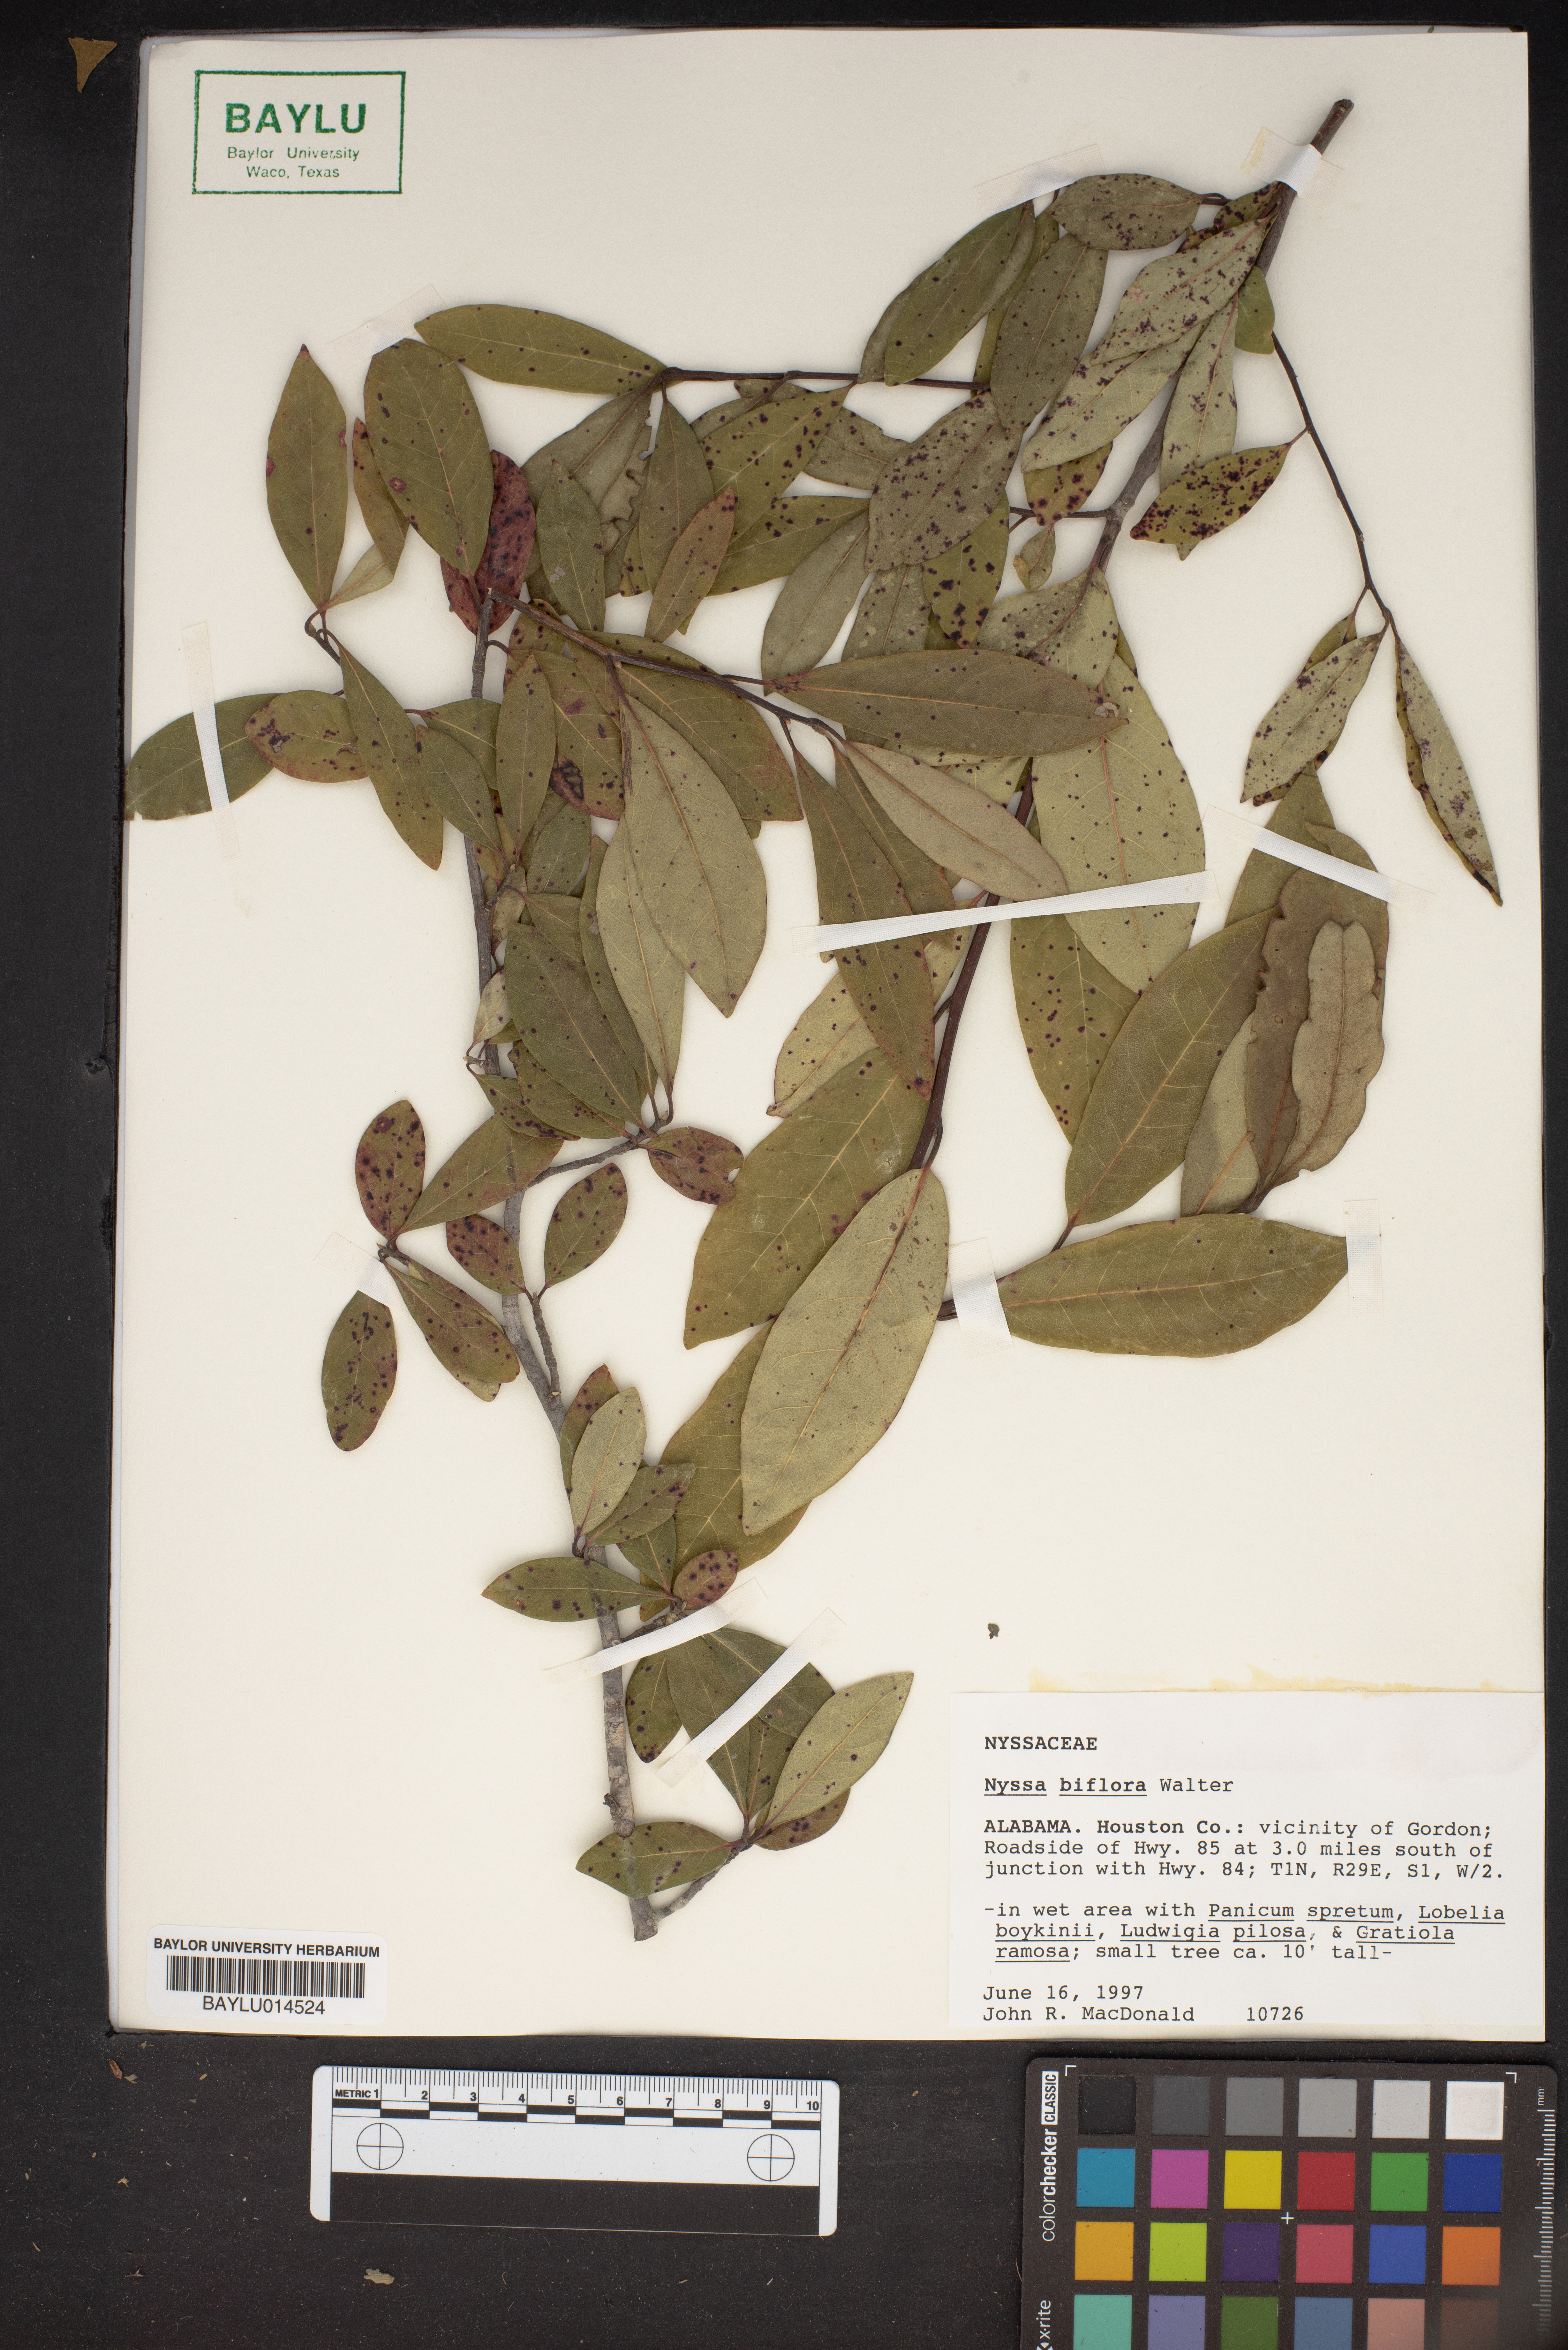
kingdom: Plantae
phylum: Tracheophyta
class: Magnoliopsida
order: Cornales
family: Nyssaceae
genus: Nyssa
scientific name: Nyssa biflora
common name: Swamp blackgum
